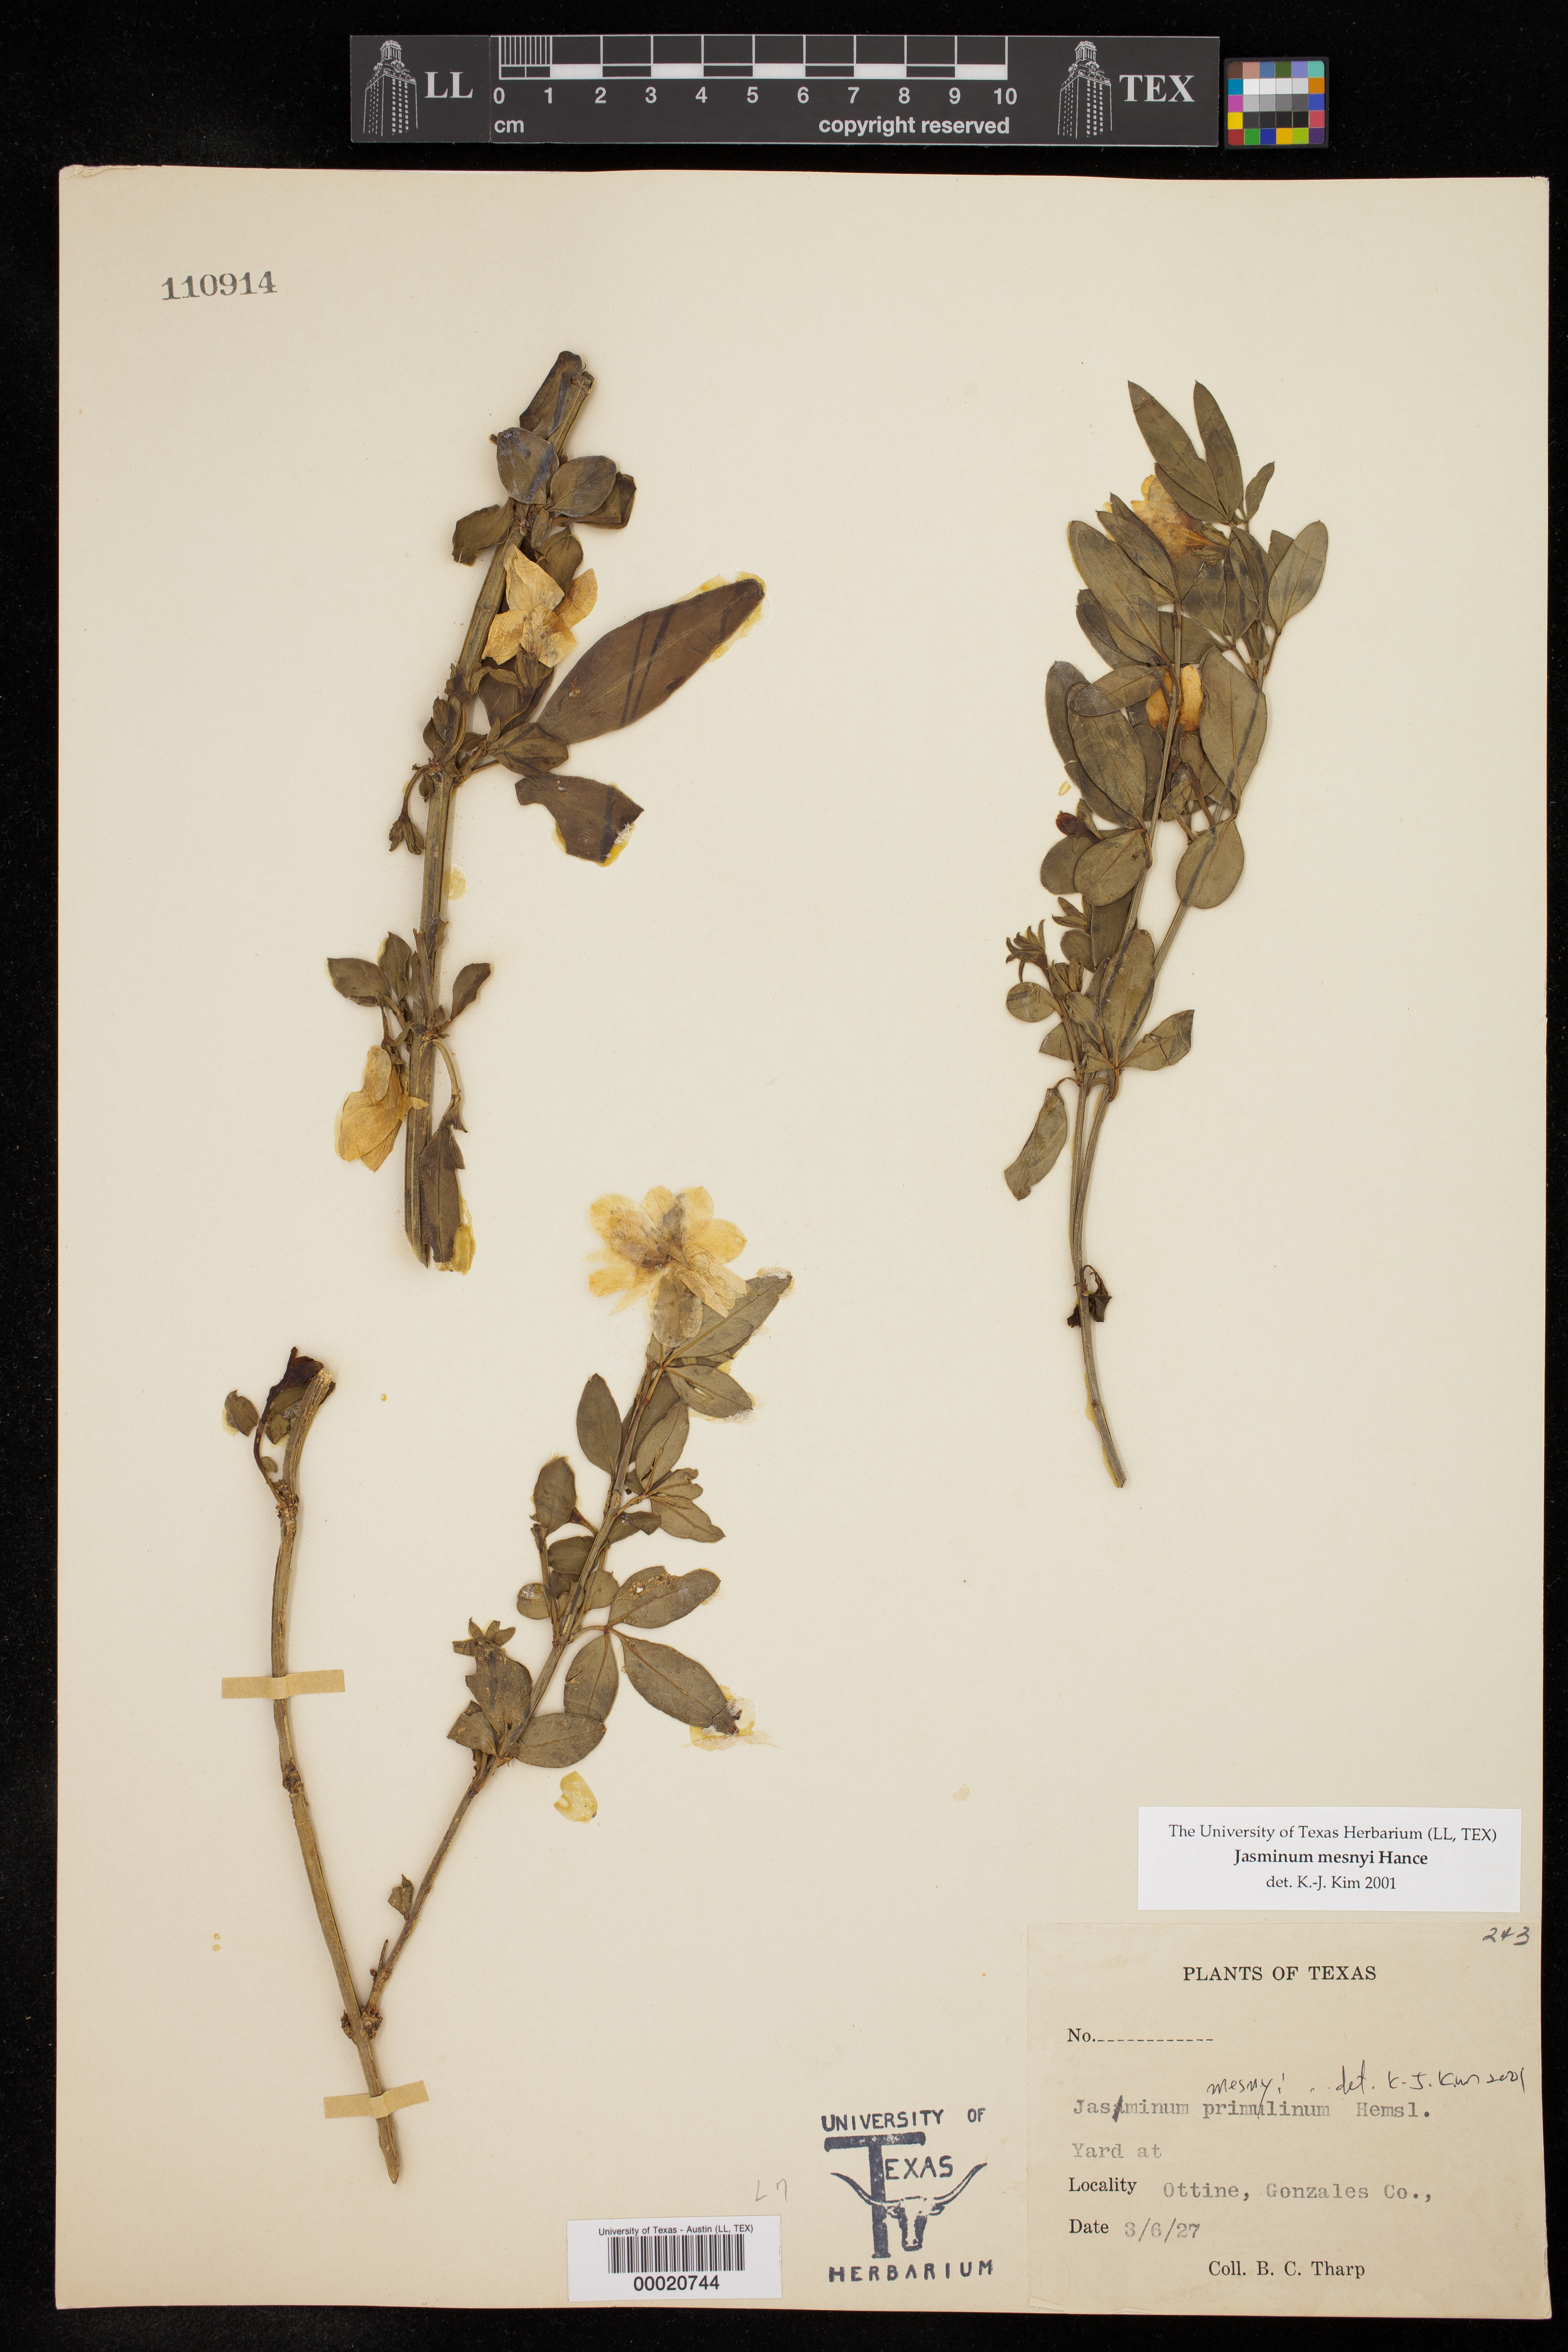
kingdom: Plantae
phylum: Tracheophyta
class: Magnoliopsida
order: Lamiales
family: Oleaceae
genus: Jasminum
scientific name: Jasminum mesnyi
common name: Japanese jasmine
